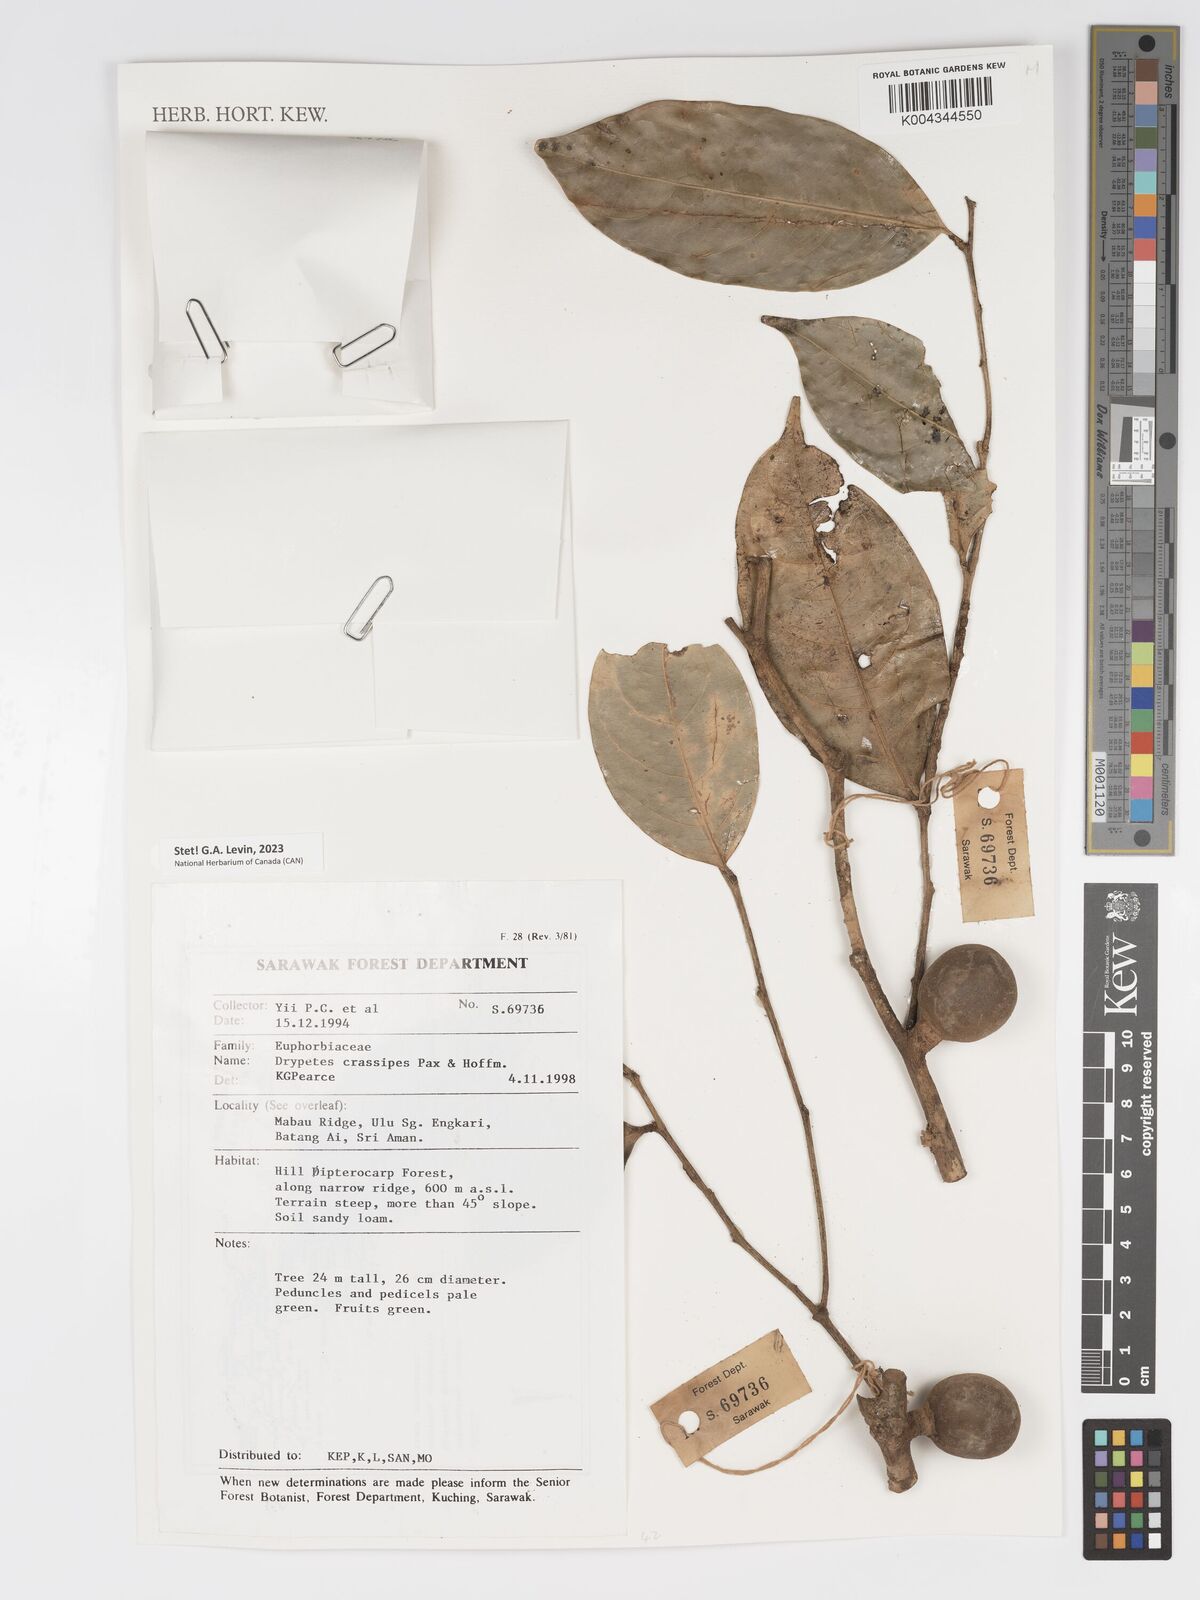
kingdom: Plantae
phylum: Tracheophyta
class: Magnoliopsida
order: Malpighiales
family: Putranjivaceae
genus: Drypetes
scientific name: Drypetes crassipes
